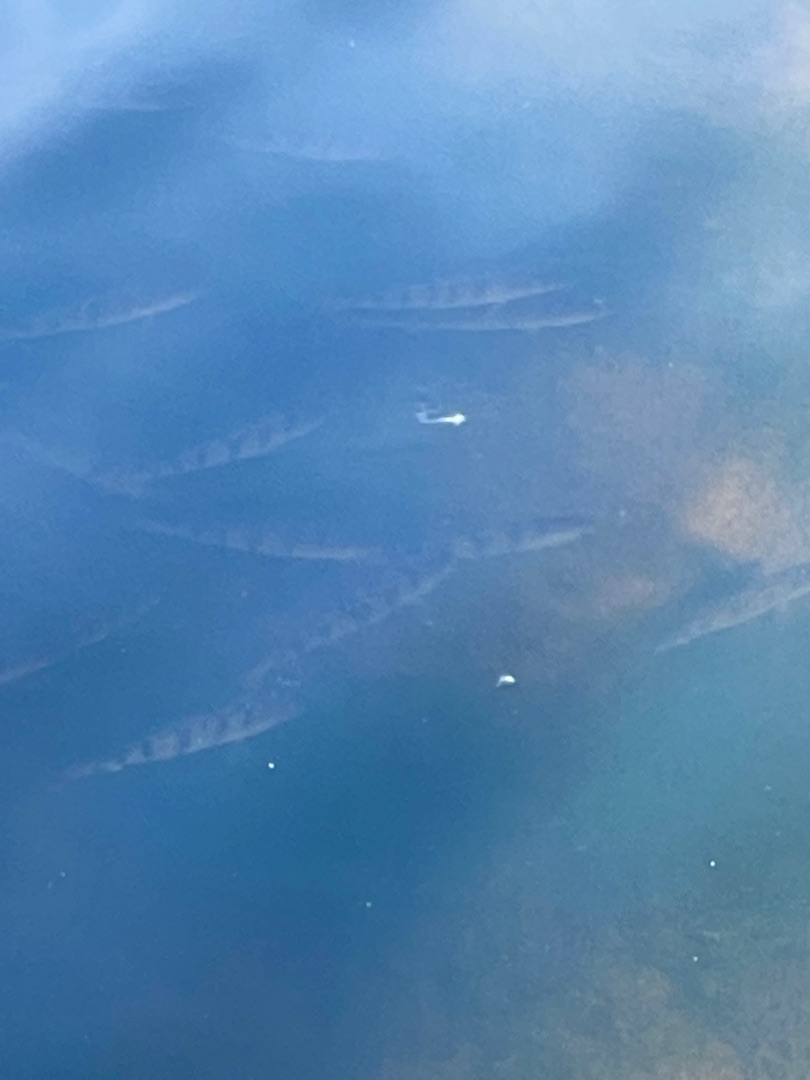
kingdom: Animalia
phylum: Chordata
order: Perciformes
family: Percidae
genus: Perca
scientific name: Perca fluviatilis
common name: Aborre
